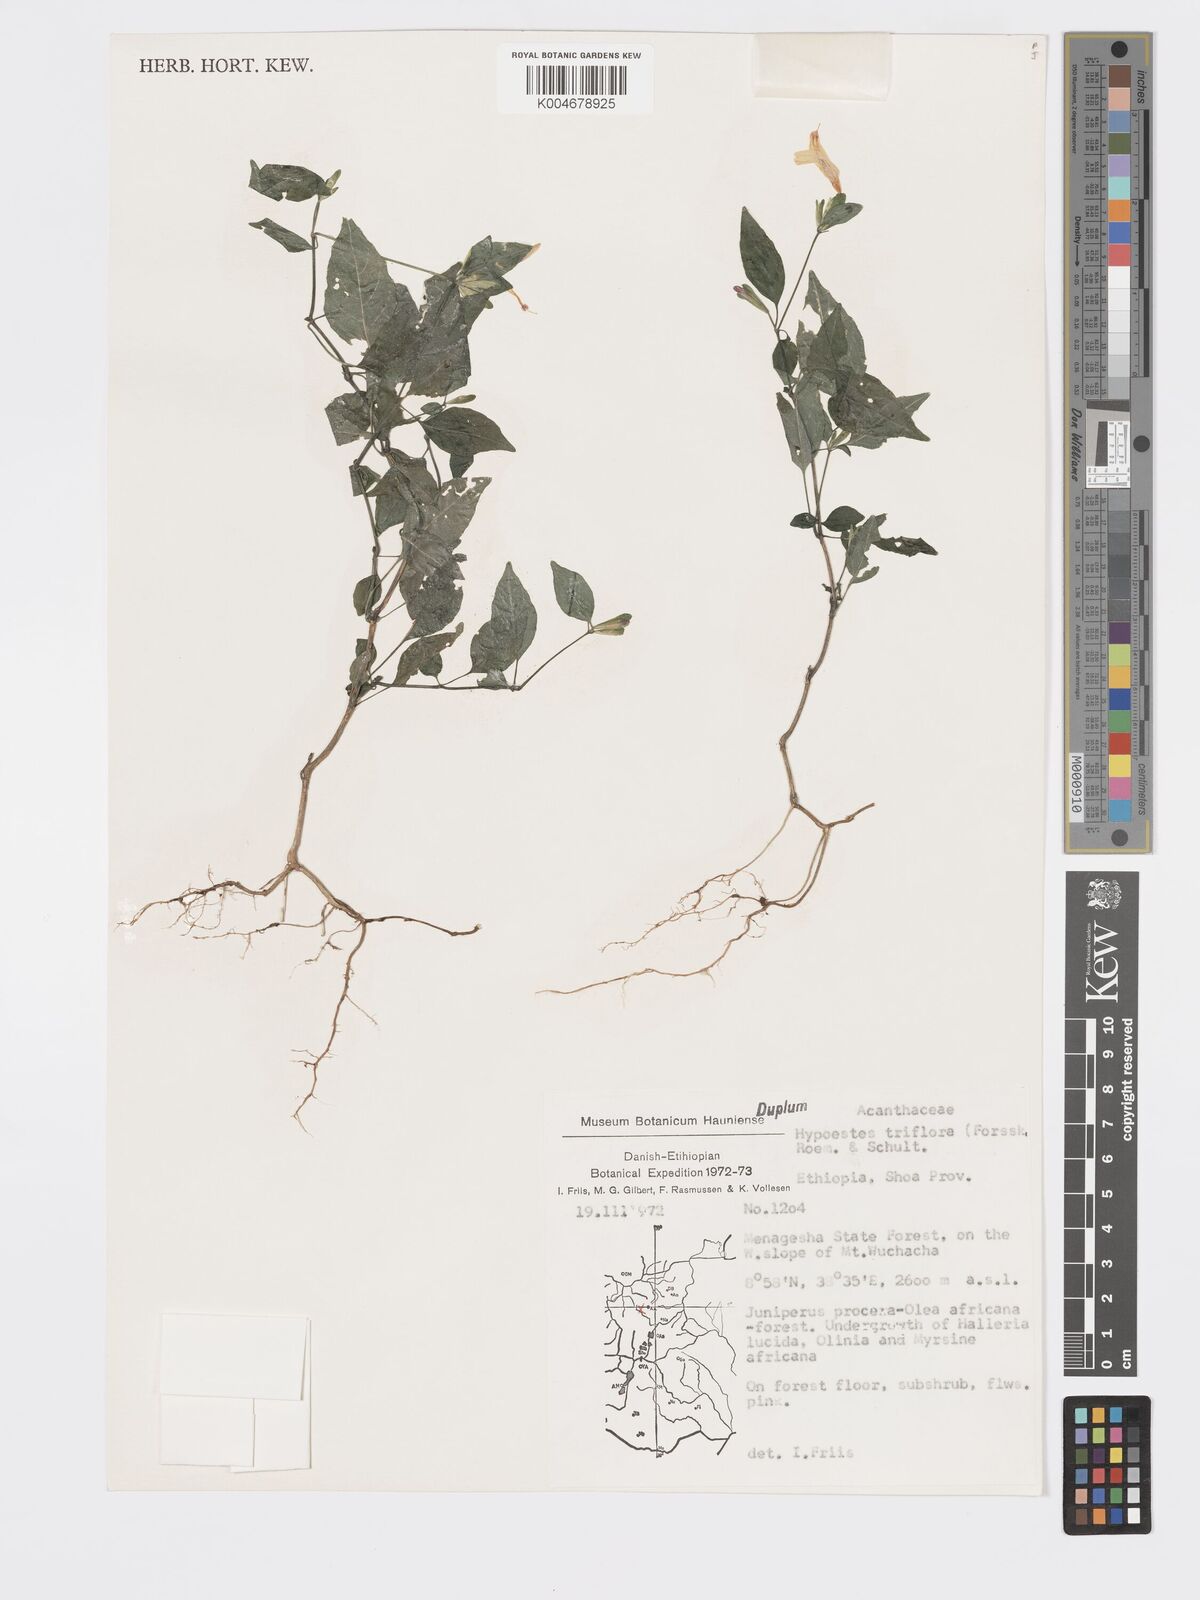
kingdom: Plantae
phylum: Tracheophyta
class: Magnoliopsida
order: Lamiales
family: Acanthaceae
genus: Hypoestes
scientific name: Hypoestes triflora
